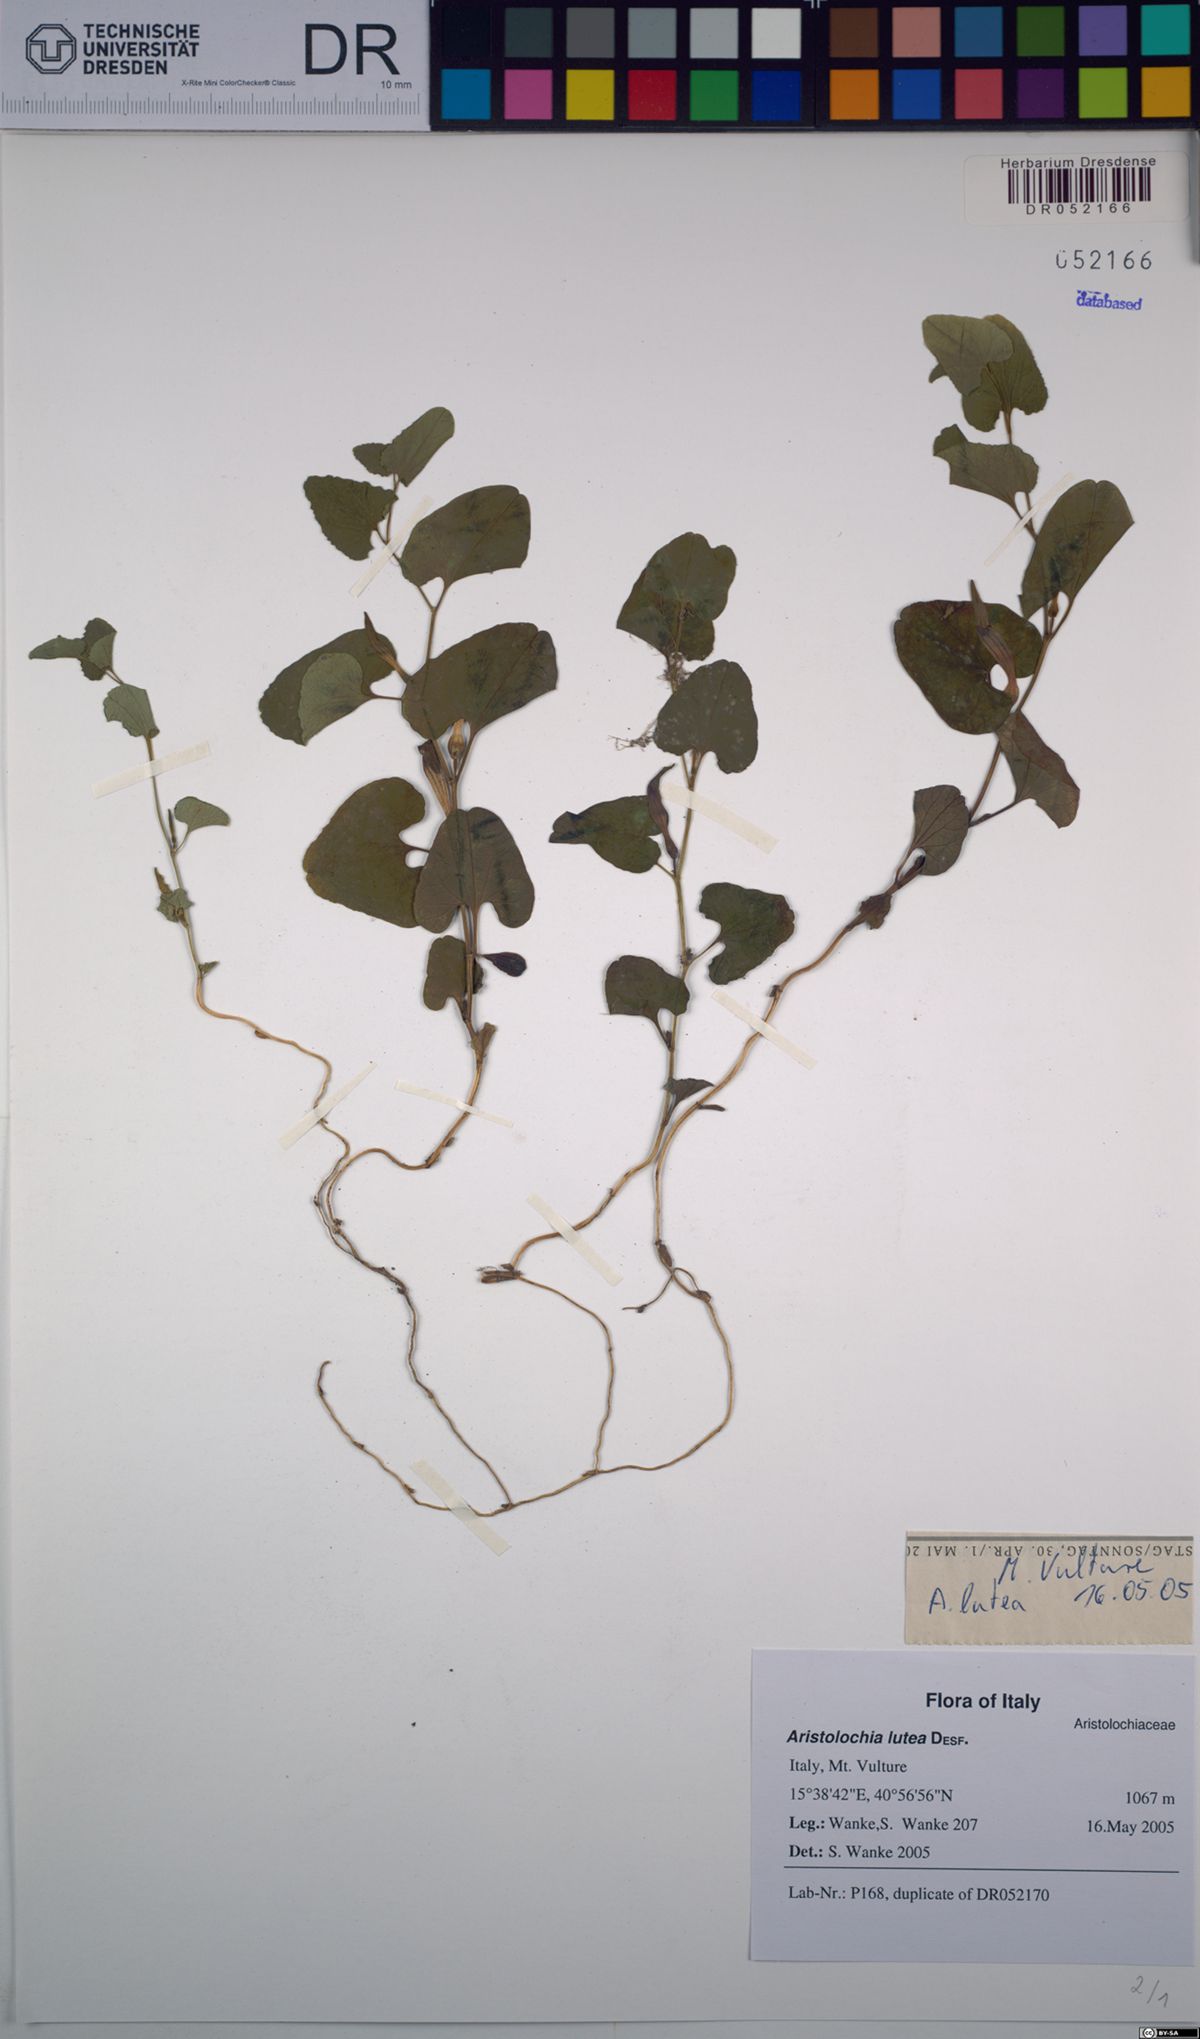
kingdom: Plantae
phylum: Tracheophyta
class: Magnoliopsida
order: Piperales
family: Aristolochiaceae
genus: Aristolochia
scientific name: Aristolochia lutea
